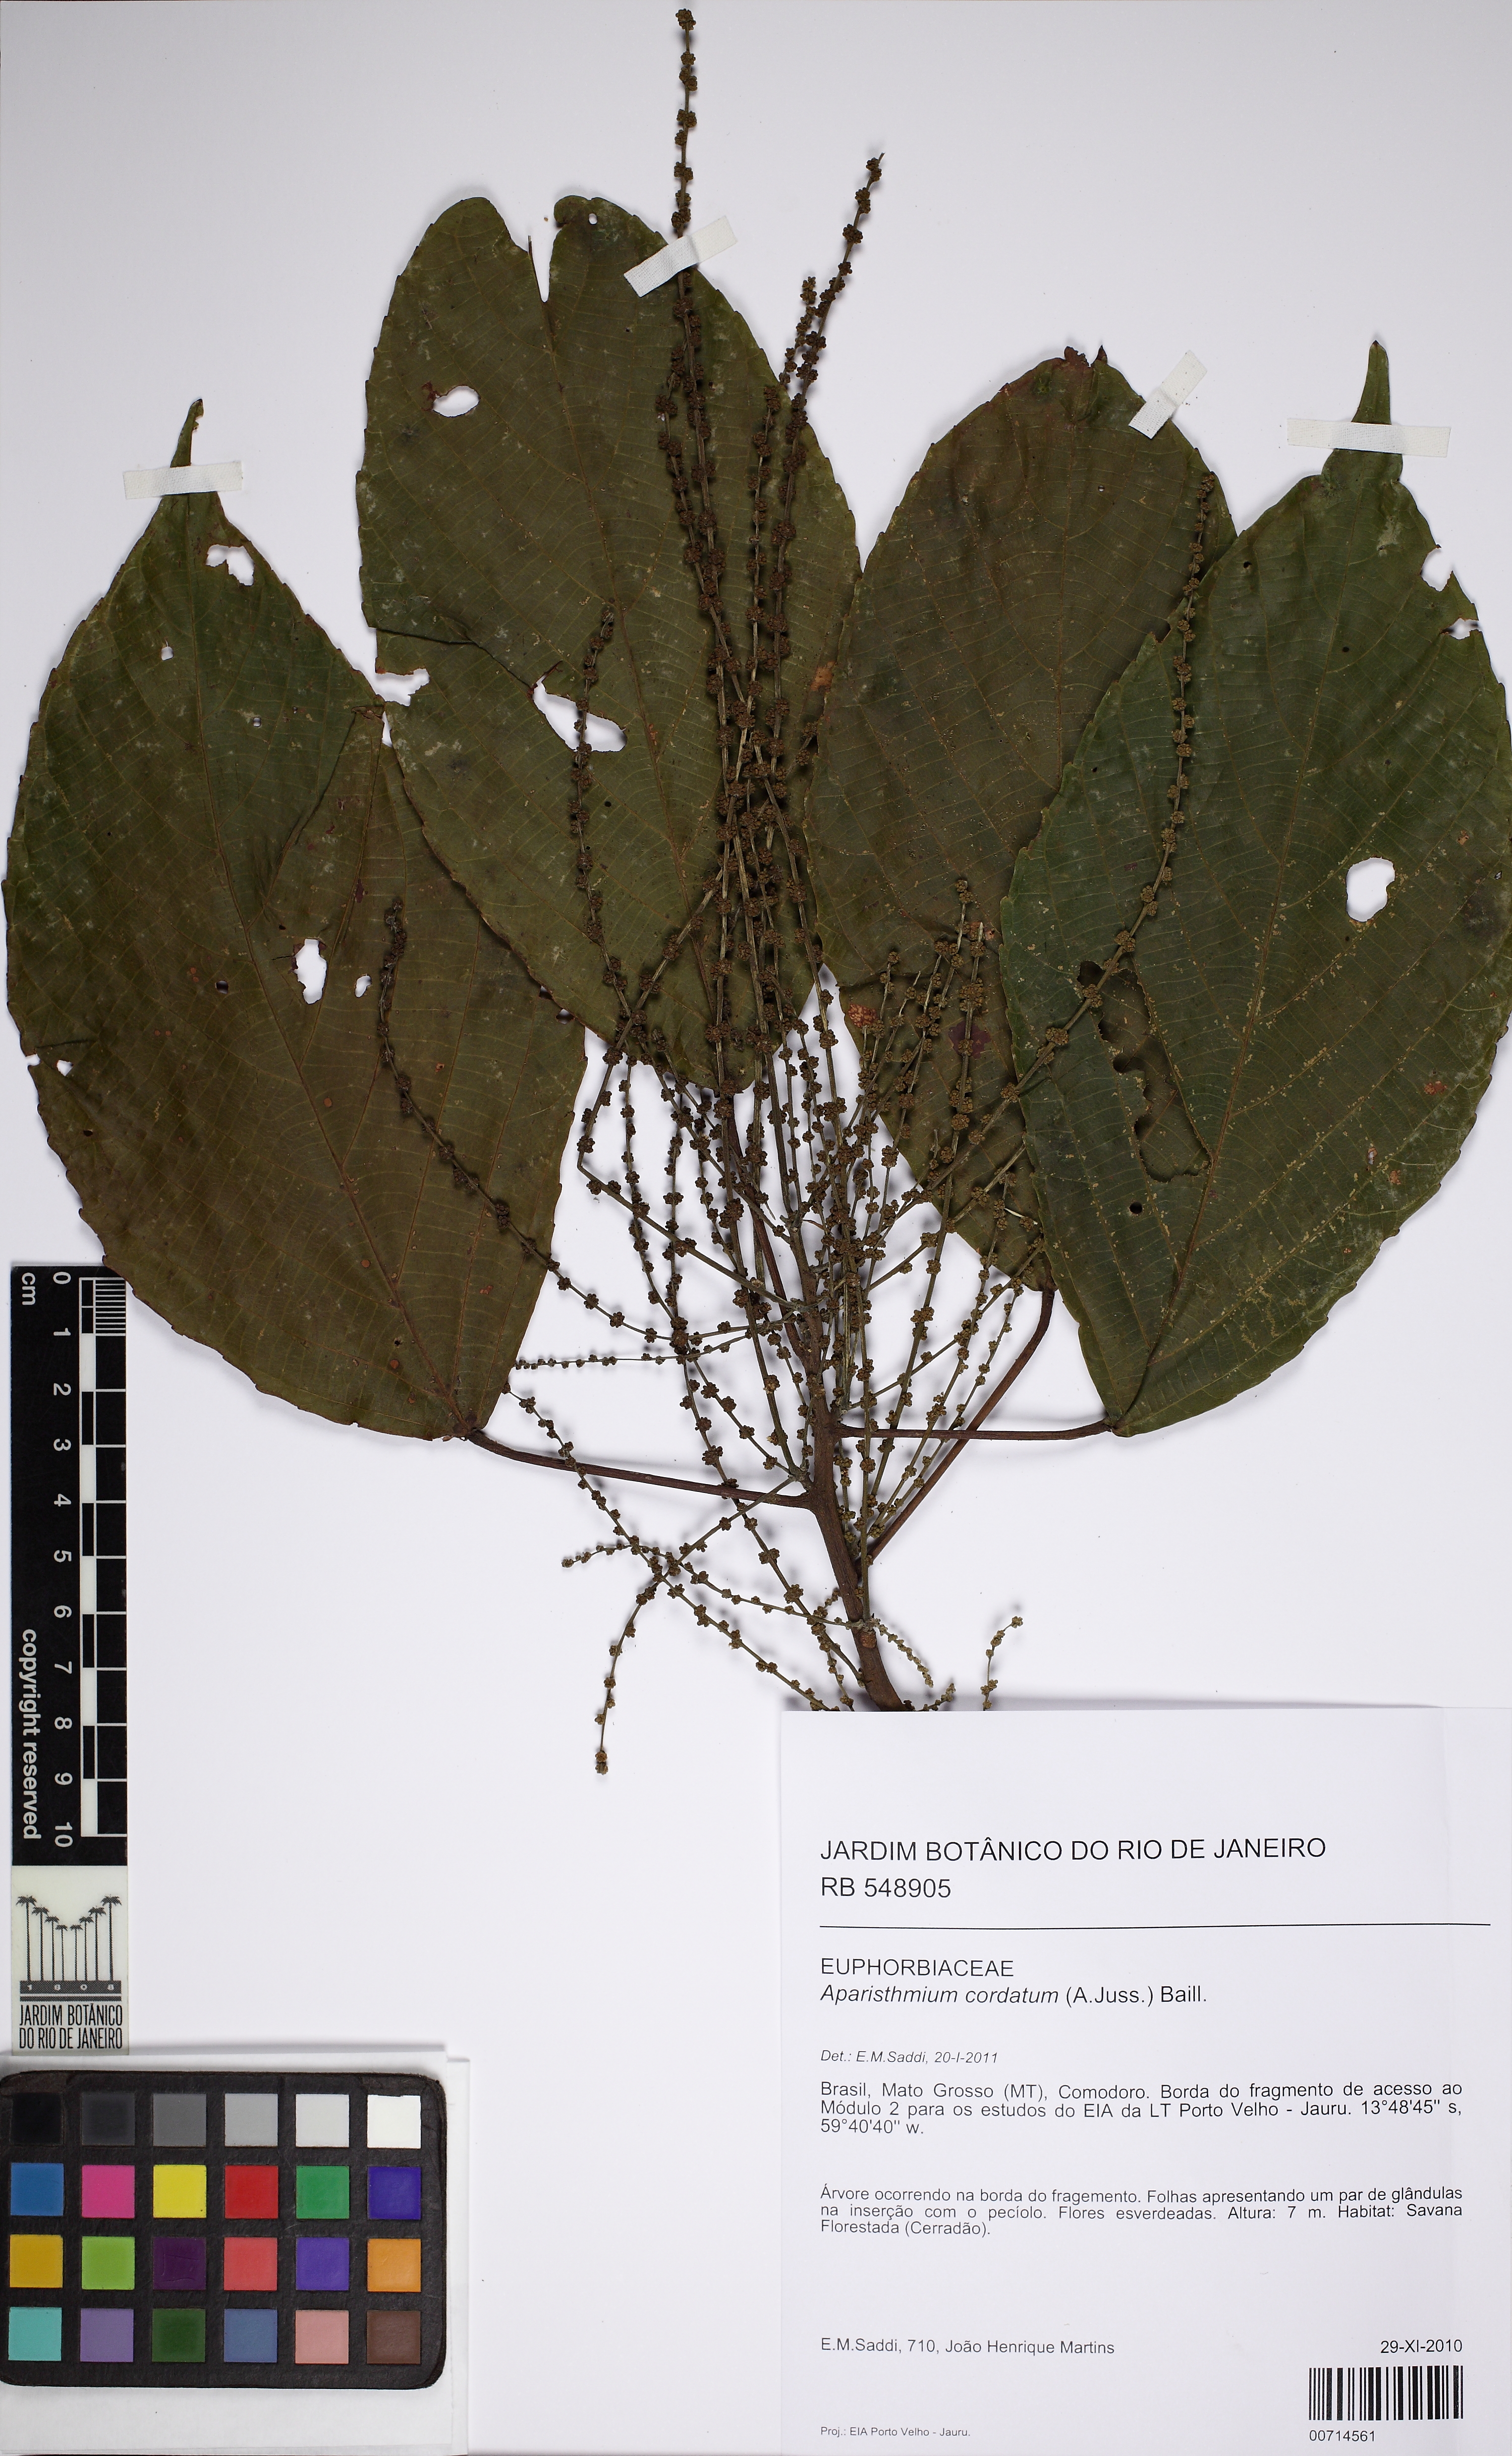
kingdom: Plantae
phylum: Tracheophyta
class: Magnoliopsida
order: Malpighiales
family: Euphorbiaceae
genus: Aparisthmium
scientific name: Aparisthmium cordatum
